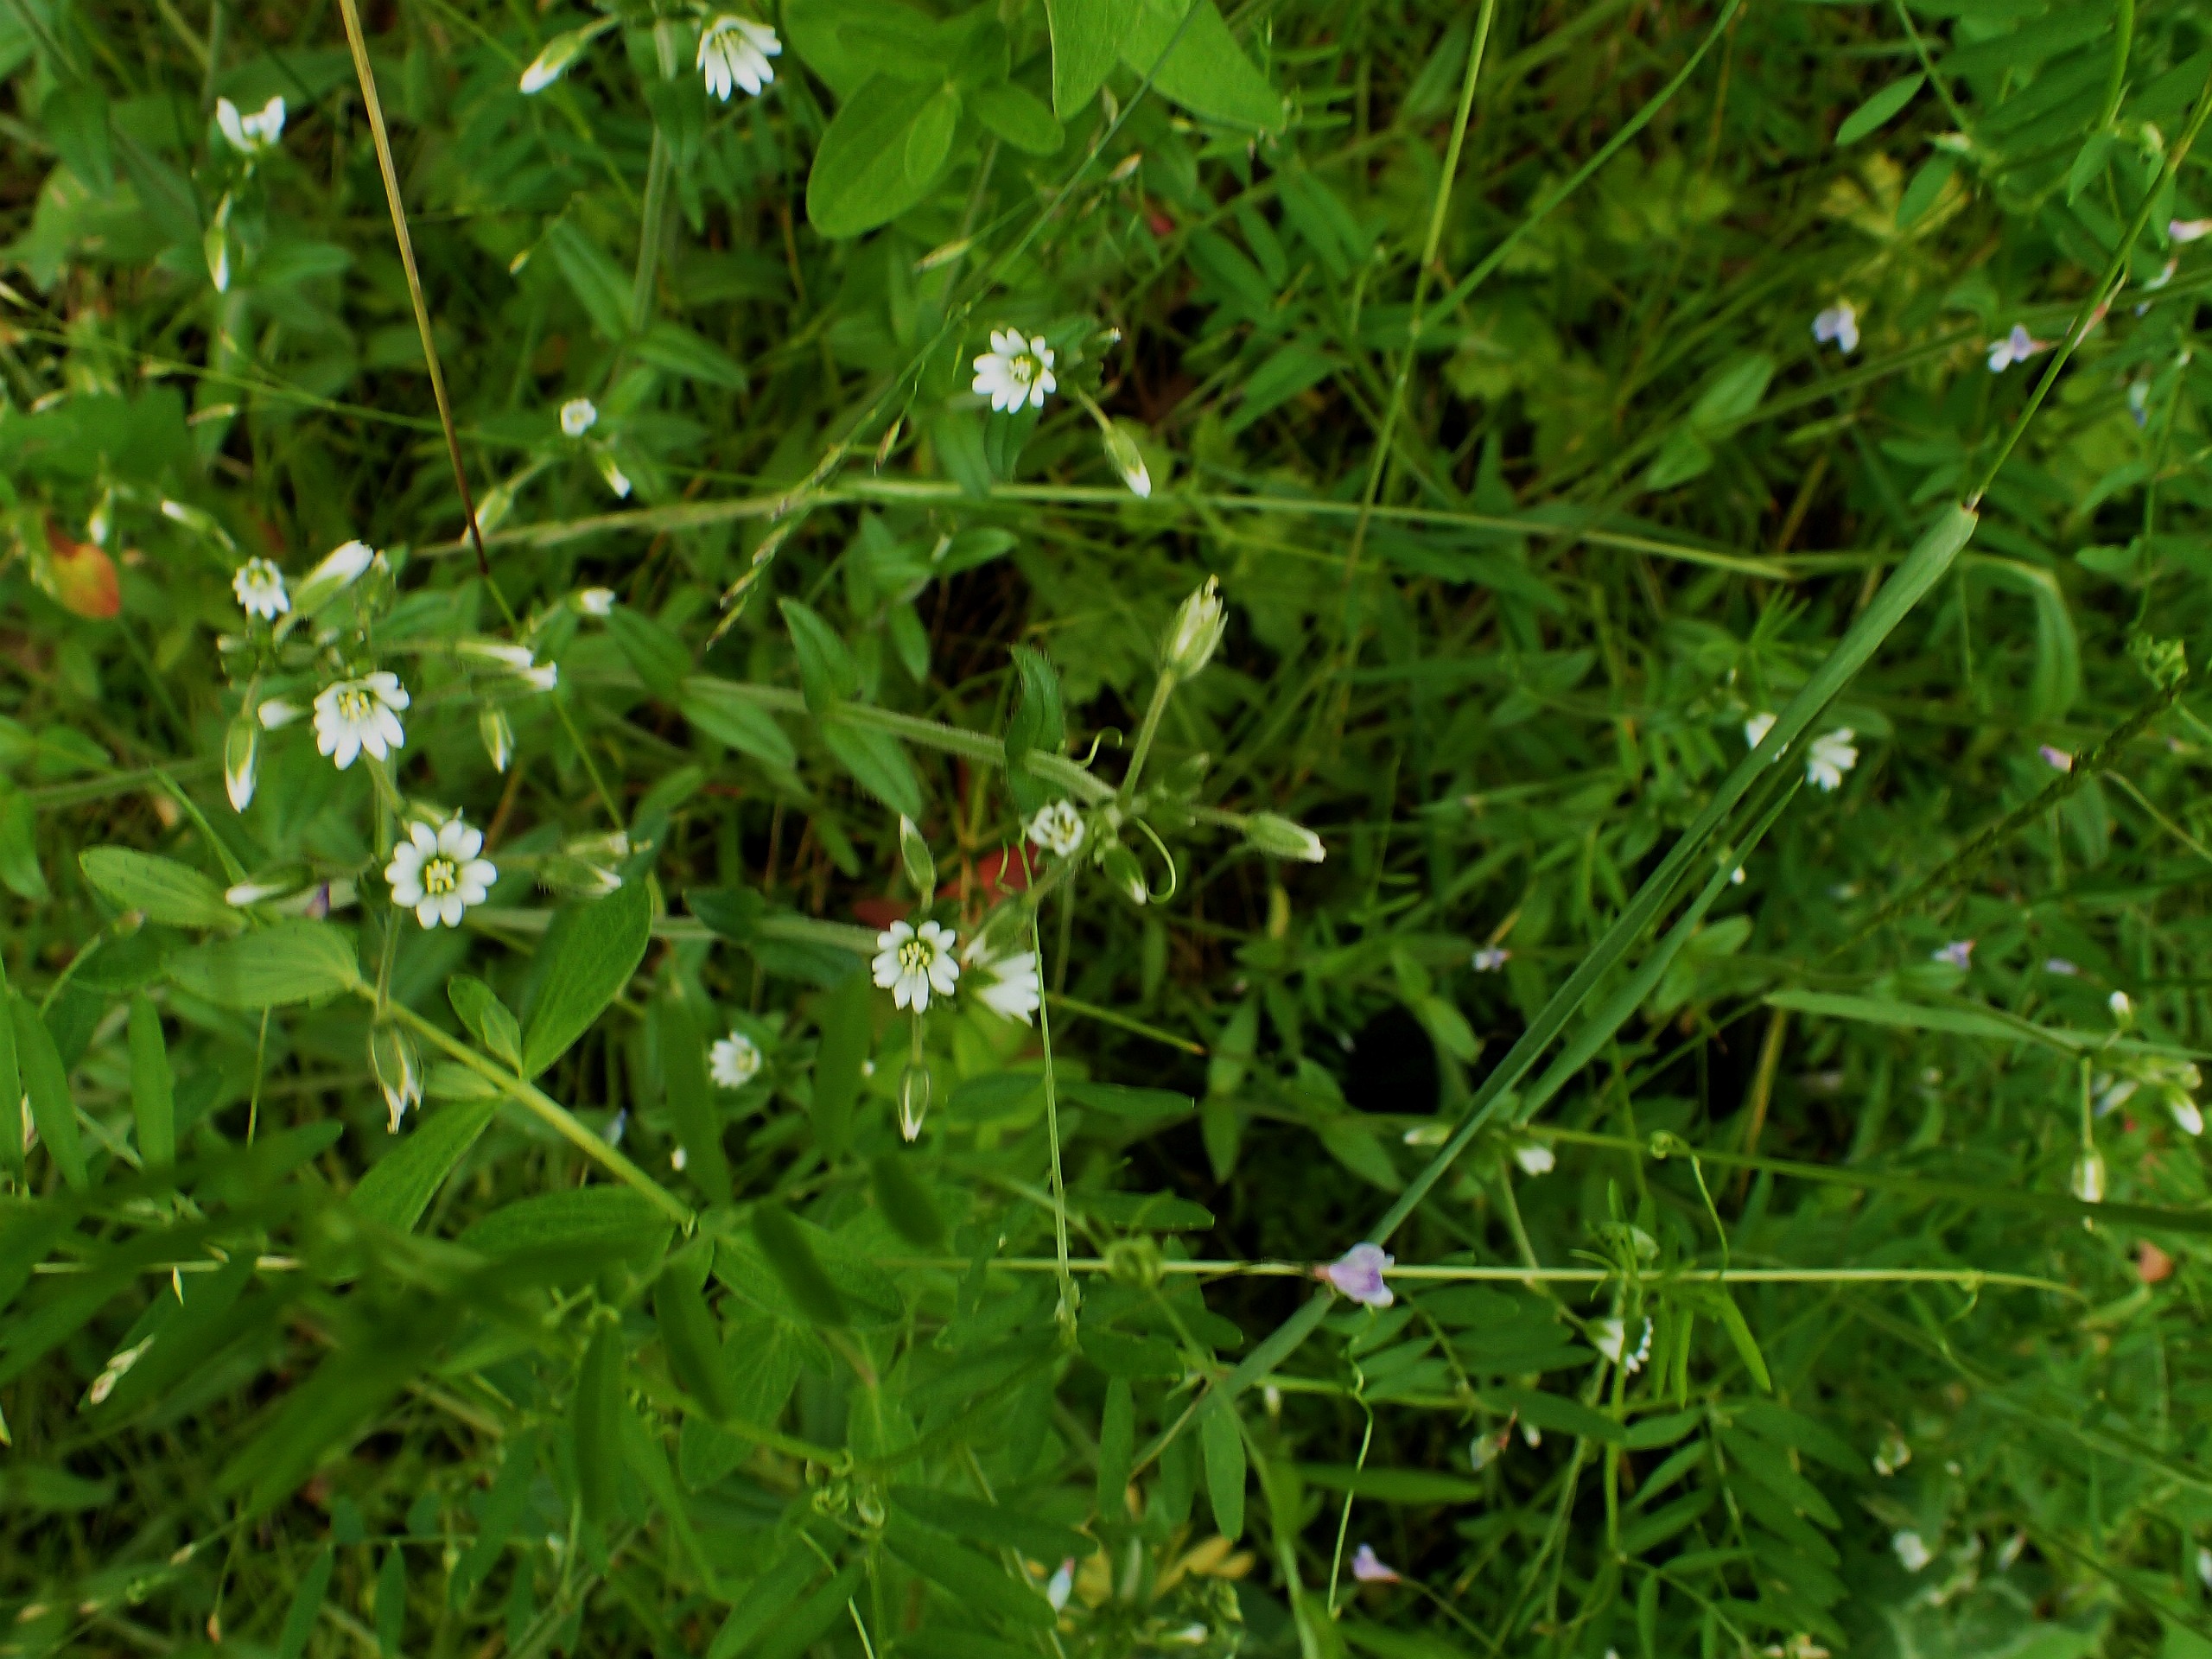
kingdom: Plantae
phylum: Tracheophyta
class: Magnoliopsida
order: Caryophyllales
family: Caryophyllaceae
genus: Cerastium
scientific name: Cerastium fontanum
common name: Almindelig hønsetarm
